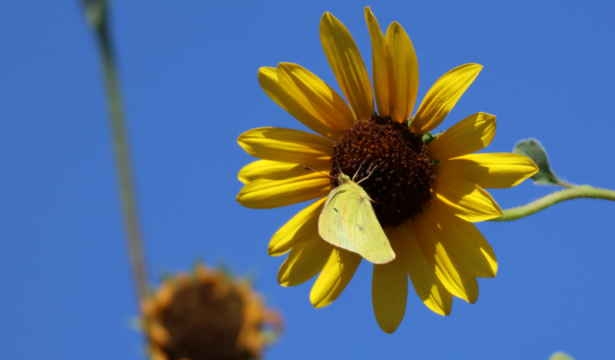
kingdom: Animalia
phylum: Arthropoda
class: Insecta
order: Lepidoptera
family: Pieridae
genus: Colias
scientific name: Colias philodice
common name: Clouded Sulphur
